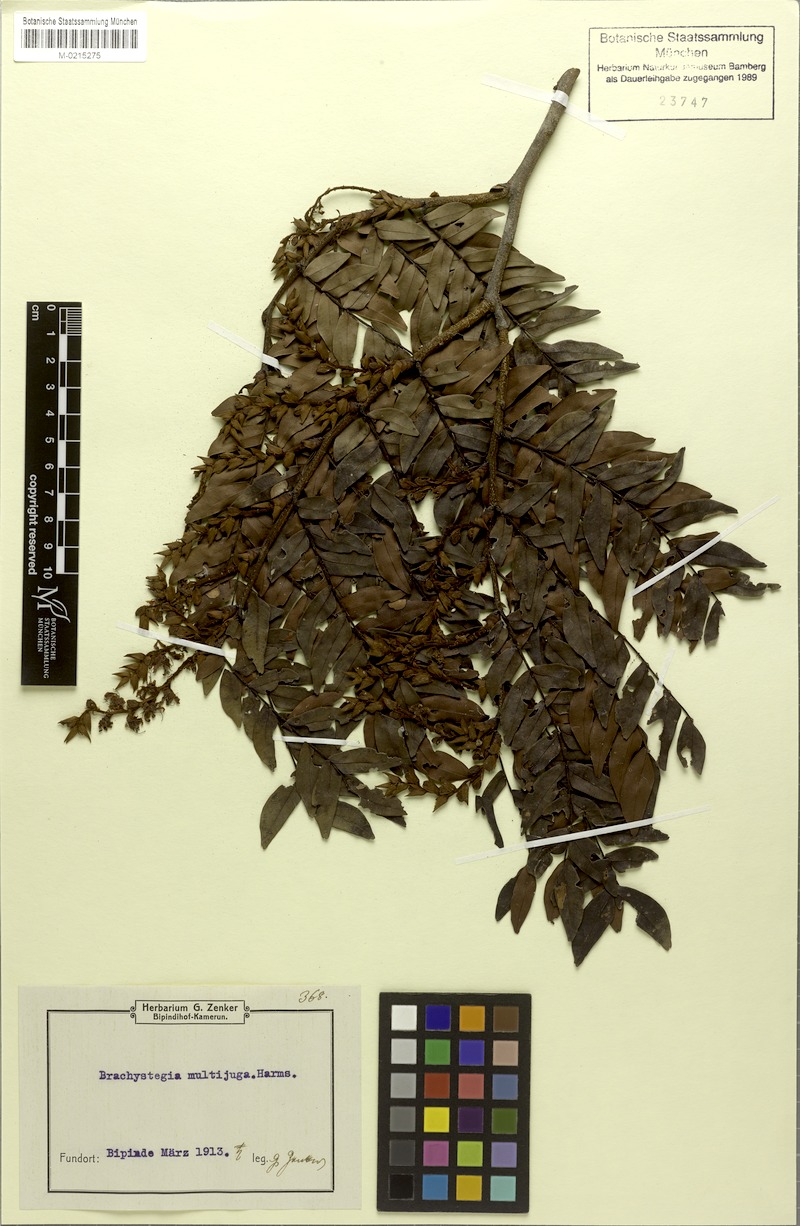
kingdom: Plantae
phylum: Tracheophyta
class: Magnoliopsida
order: Fabales
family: Fabaceae
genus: Brachystegia
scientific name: Brachystegia
